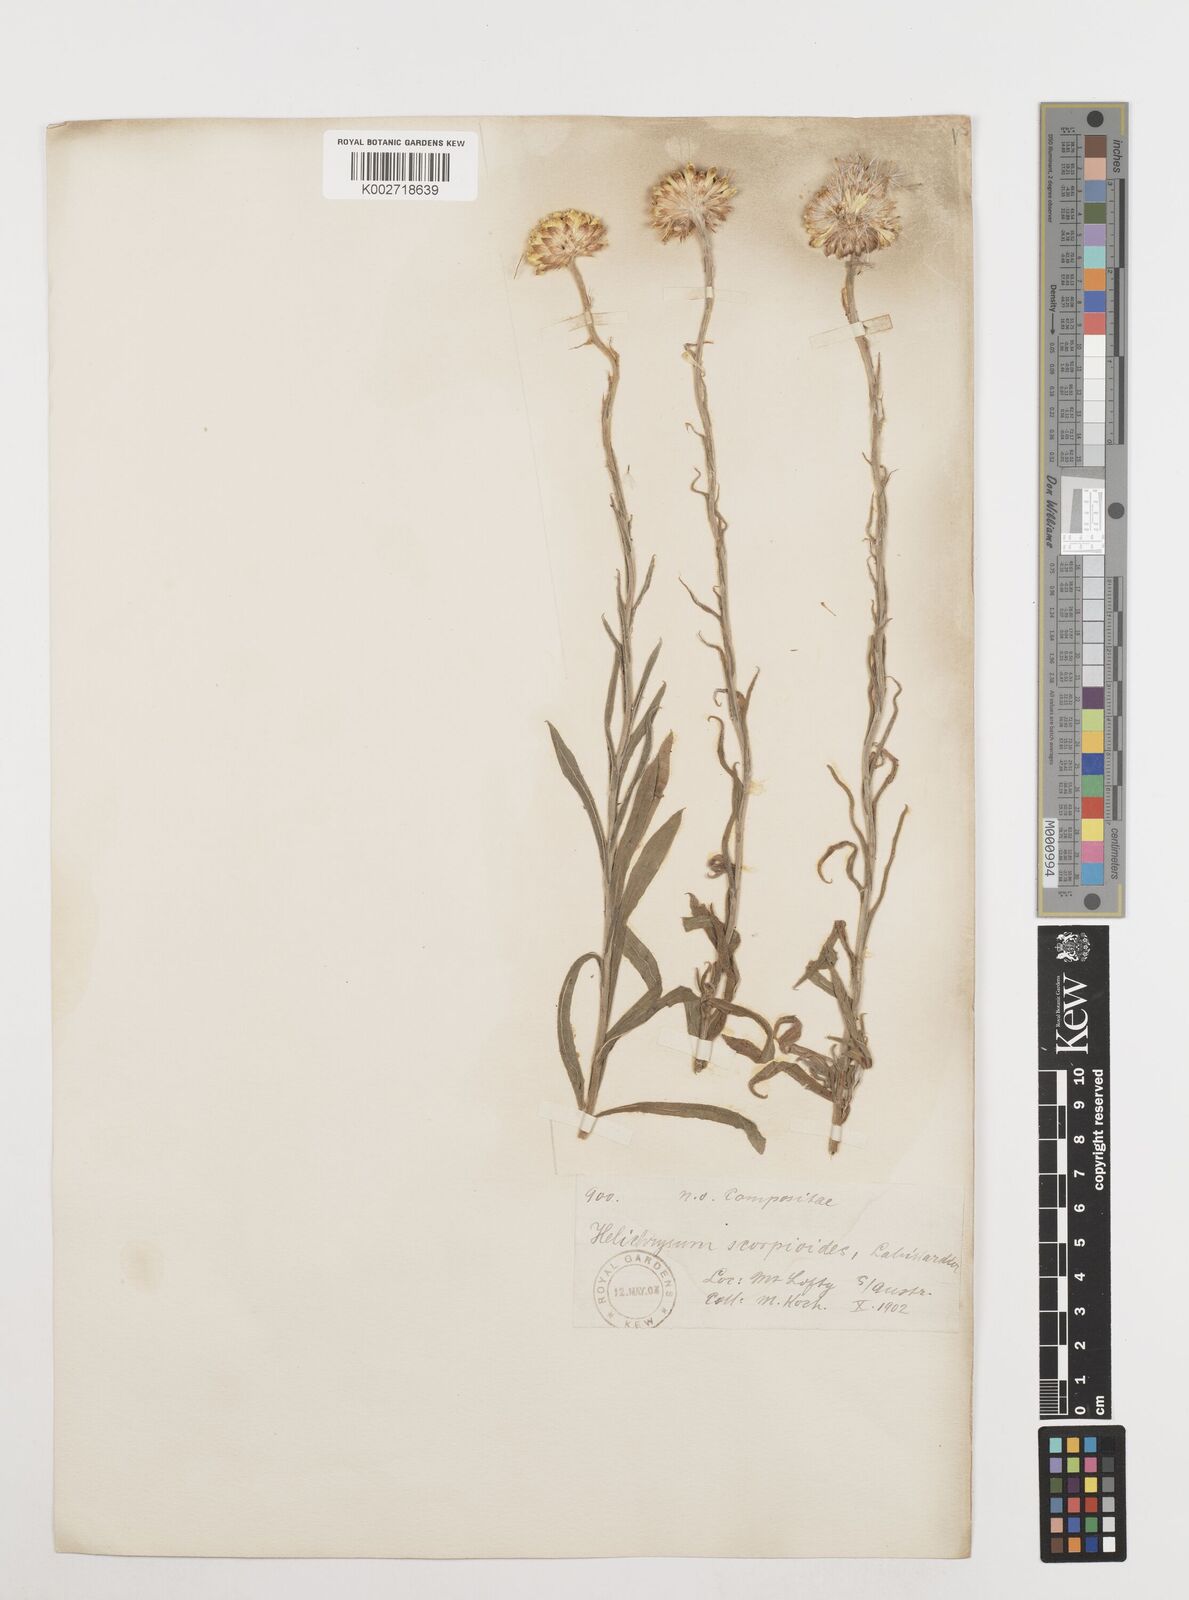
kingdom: Plantae
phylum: Tracheophyta
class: Magnoliopsida
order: Asterales
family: Asteraceae
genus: Coronidium
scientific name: Coronidium scorpioides
